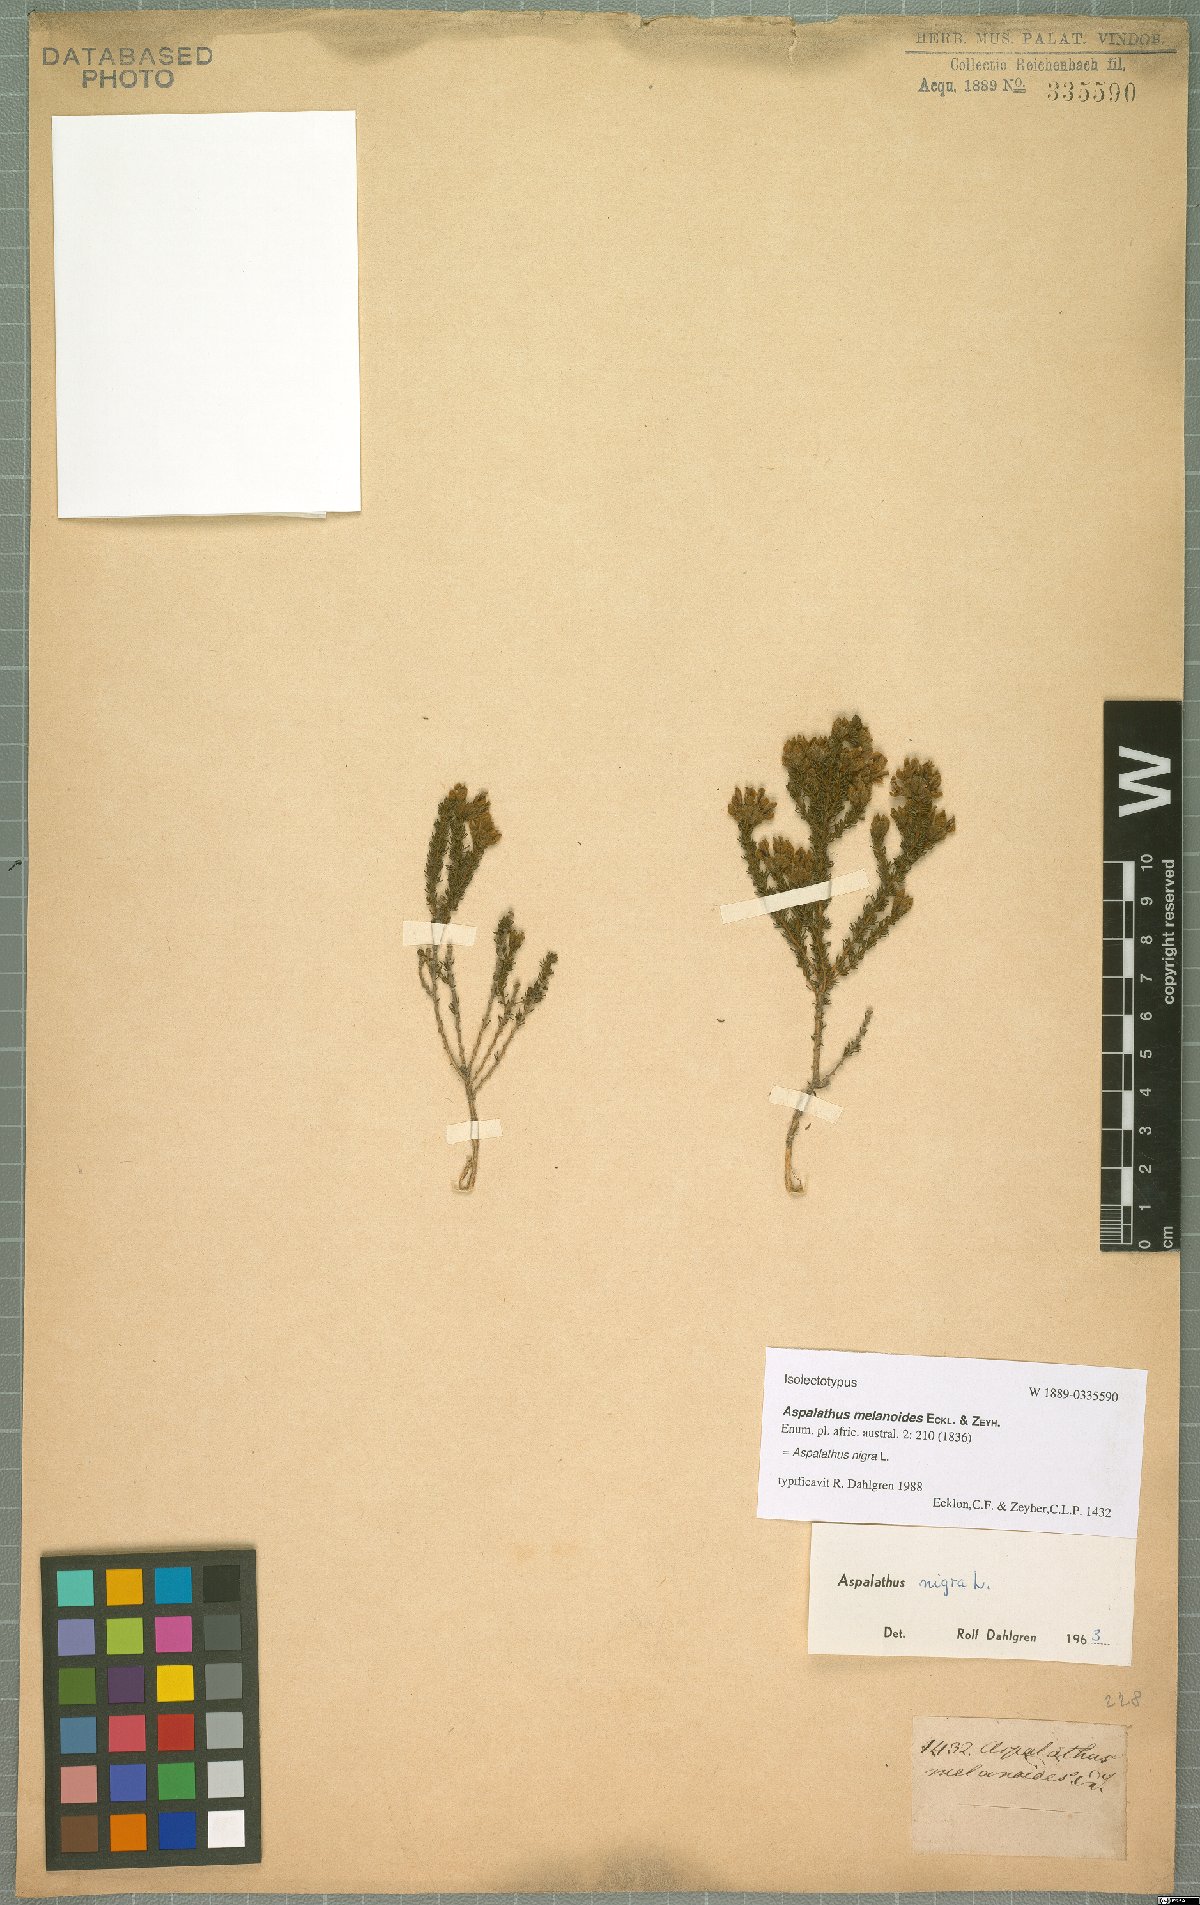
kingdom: Plantae
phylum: Tracheophyta
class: Magnoliopsida
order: Fabales
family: Fabaceae
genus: Aspalathus
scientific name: Aspalathus nigra
